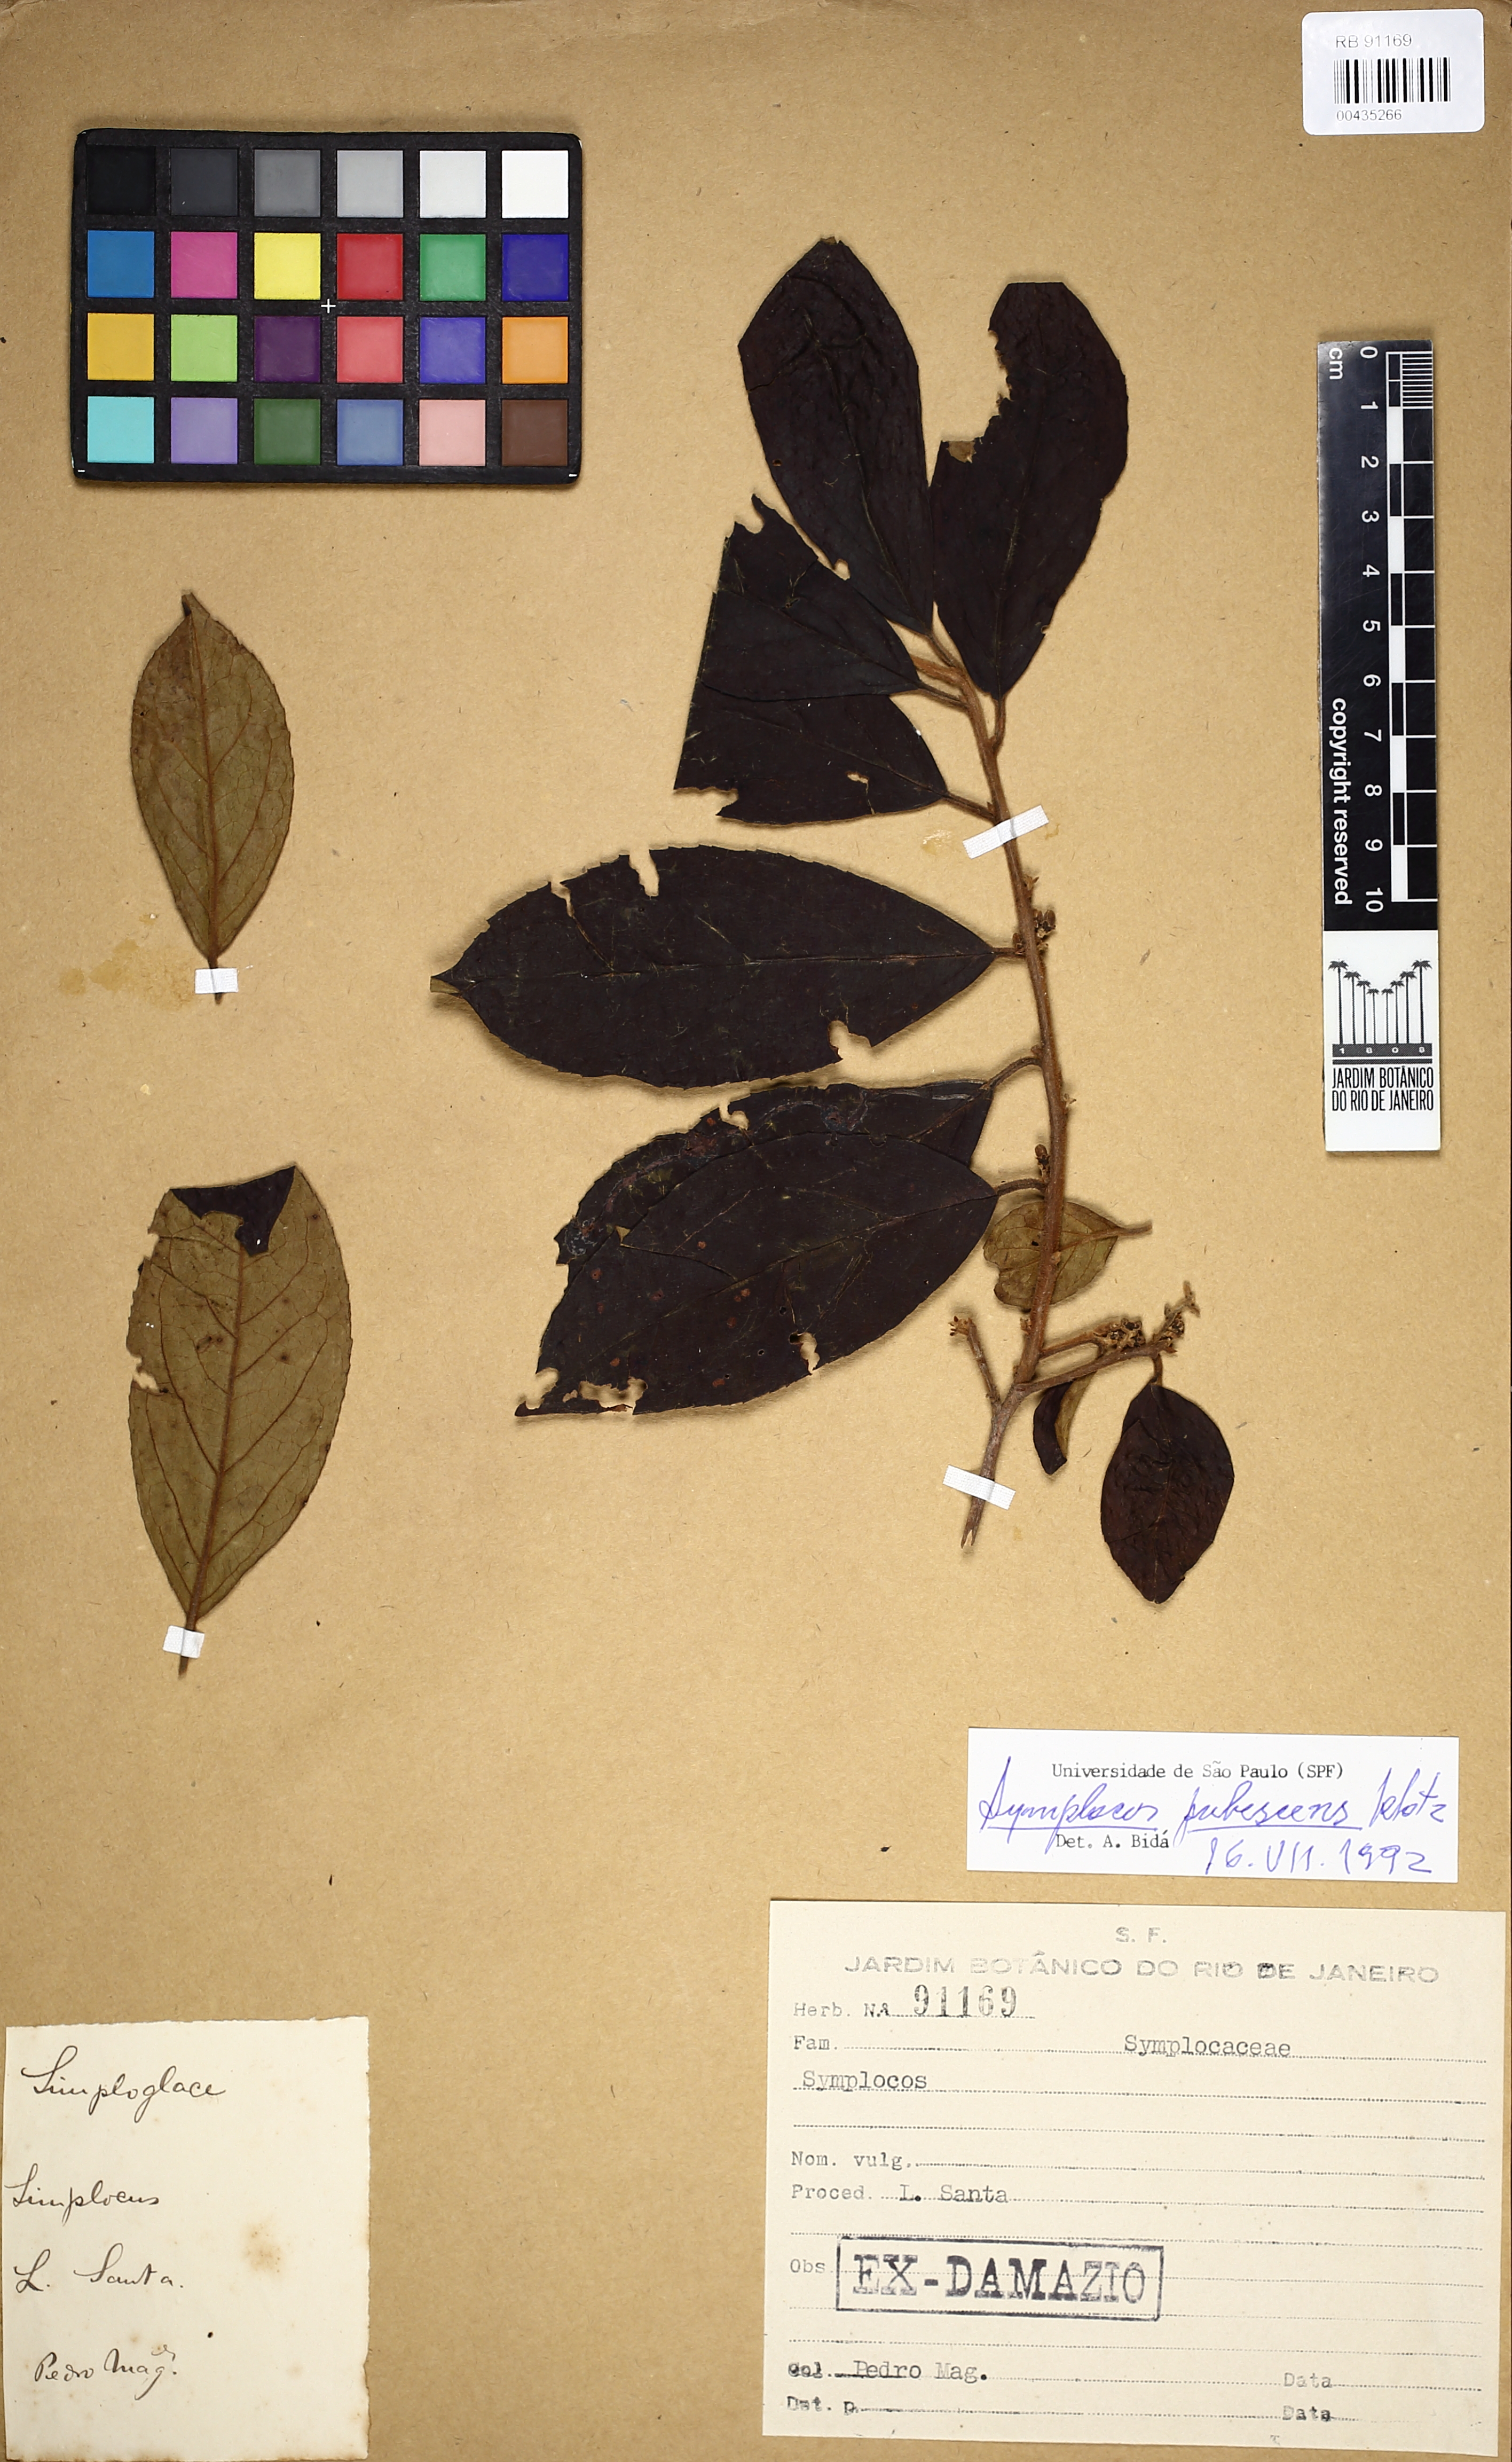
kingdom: Plantae
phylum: Tracheophyta
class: Magnoliopsida
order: Ericales
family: Symplocaceae
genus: Symplocos
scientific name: Symplocos pubescens
